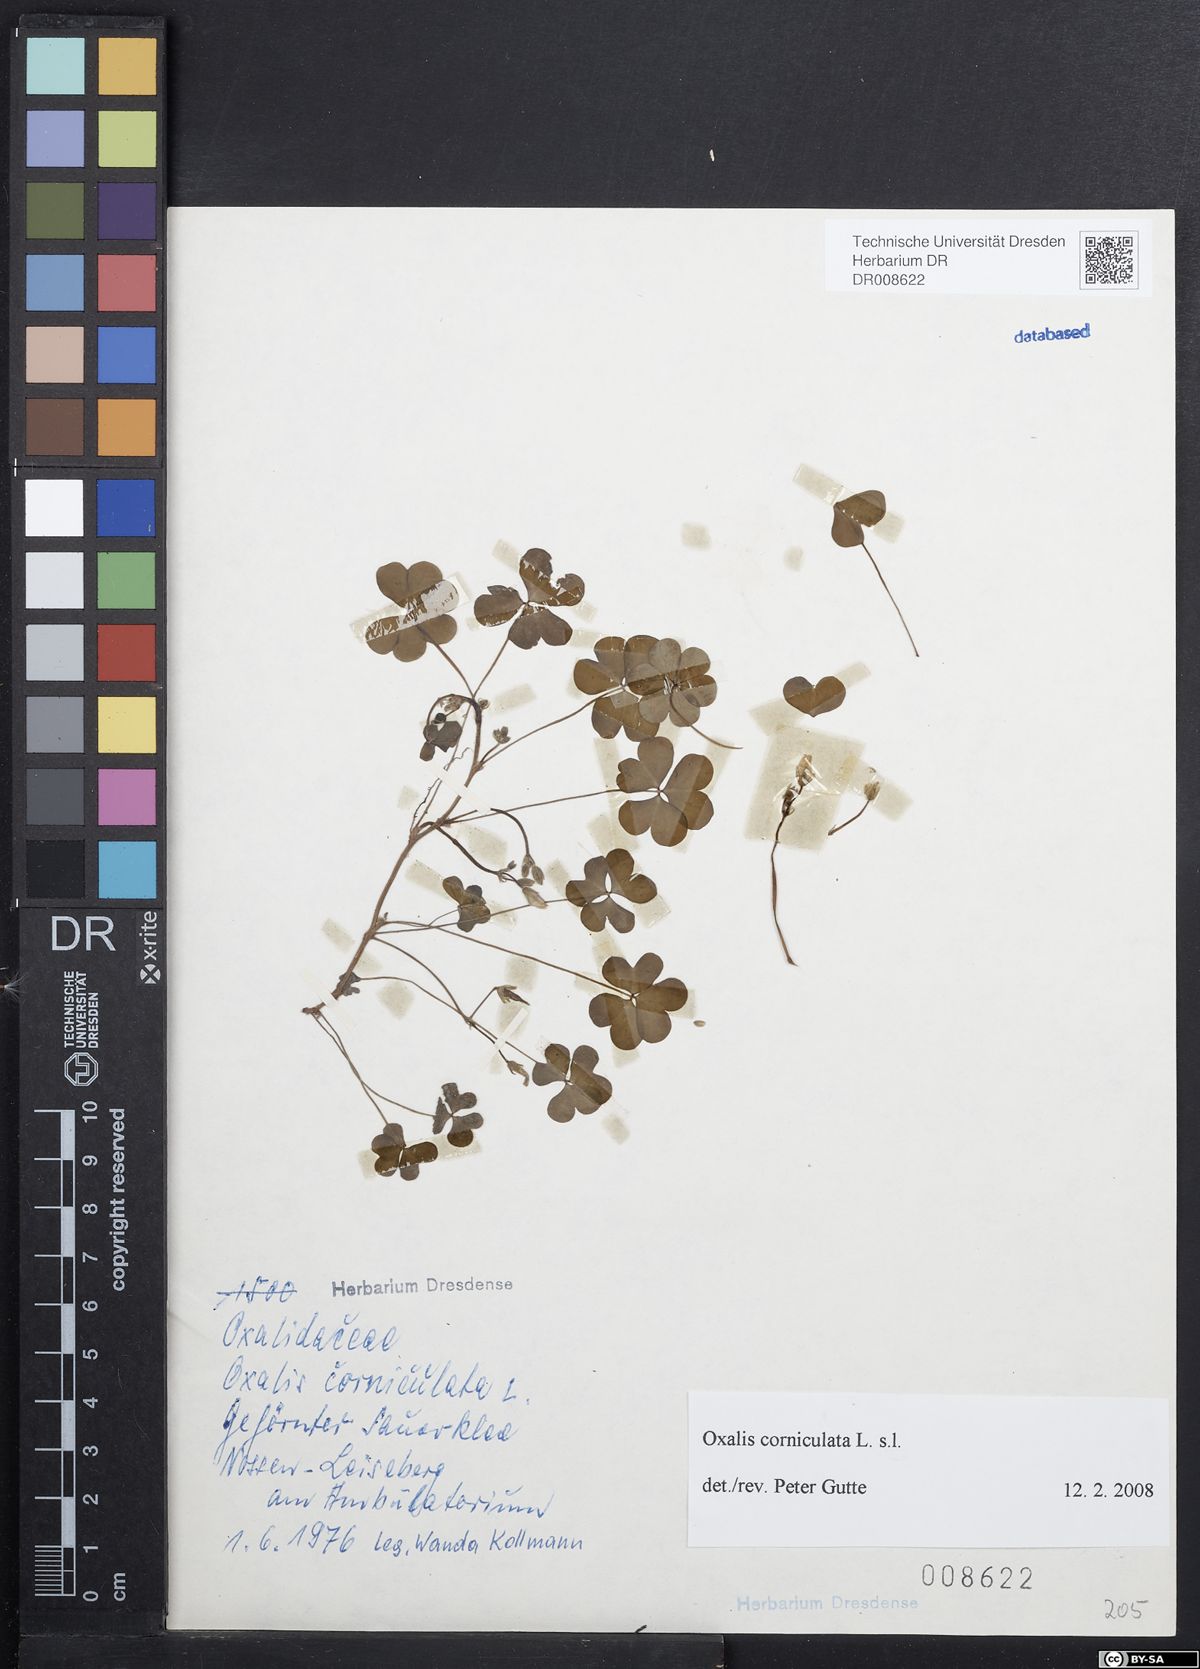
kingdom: Plantae
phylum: Tracheophyta
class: Magnoliopsida
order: Oxalidales
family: Oxalidaceae
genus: Oxalis
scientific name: Oxalis corniculata
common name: Procumbent yellow-sorrel
